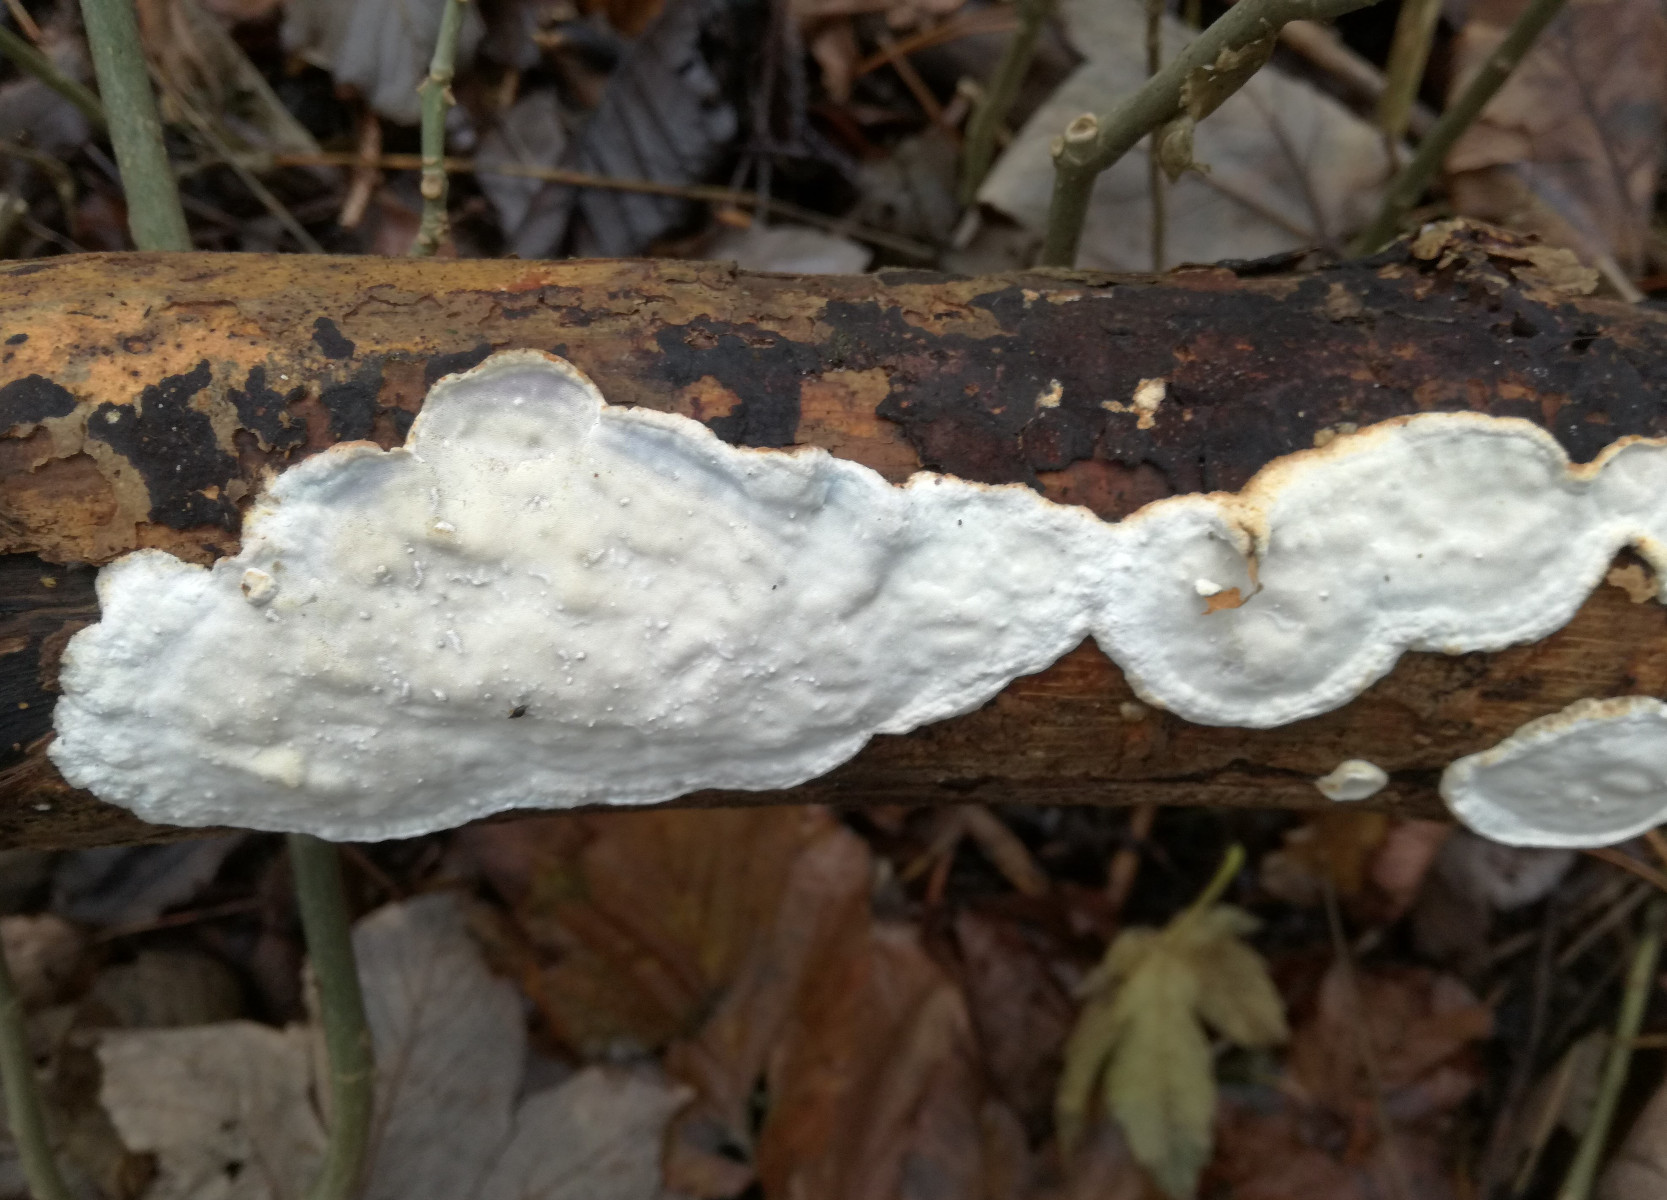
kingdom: Fungi
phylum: Basidiomycota
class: Agaricomycetes
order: Polyporales
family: Incrustoporiaceae
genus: Skeletocutis
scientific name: Skeletocutis nemoralis
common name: stor krystalporesvamp
